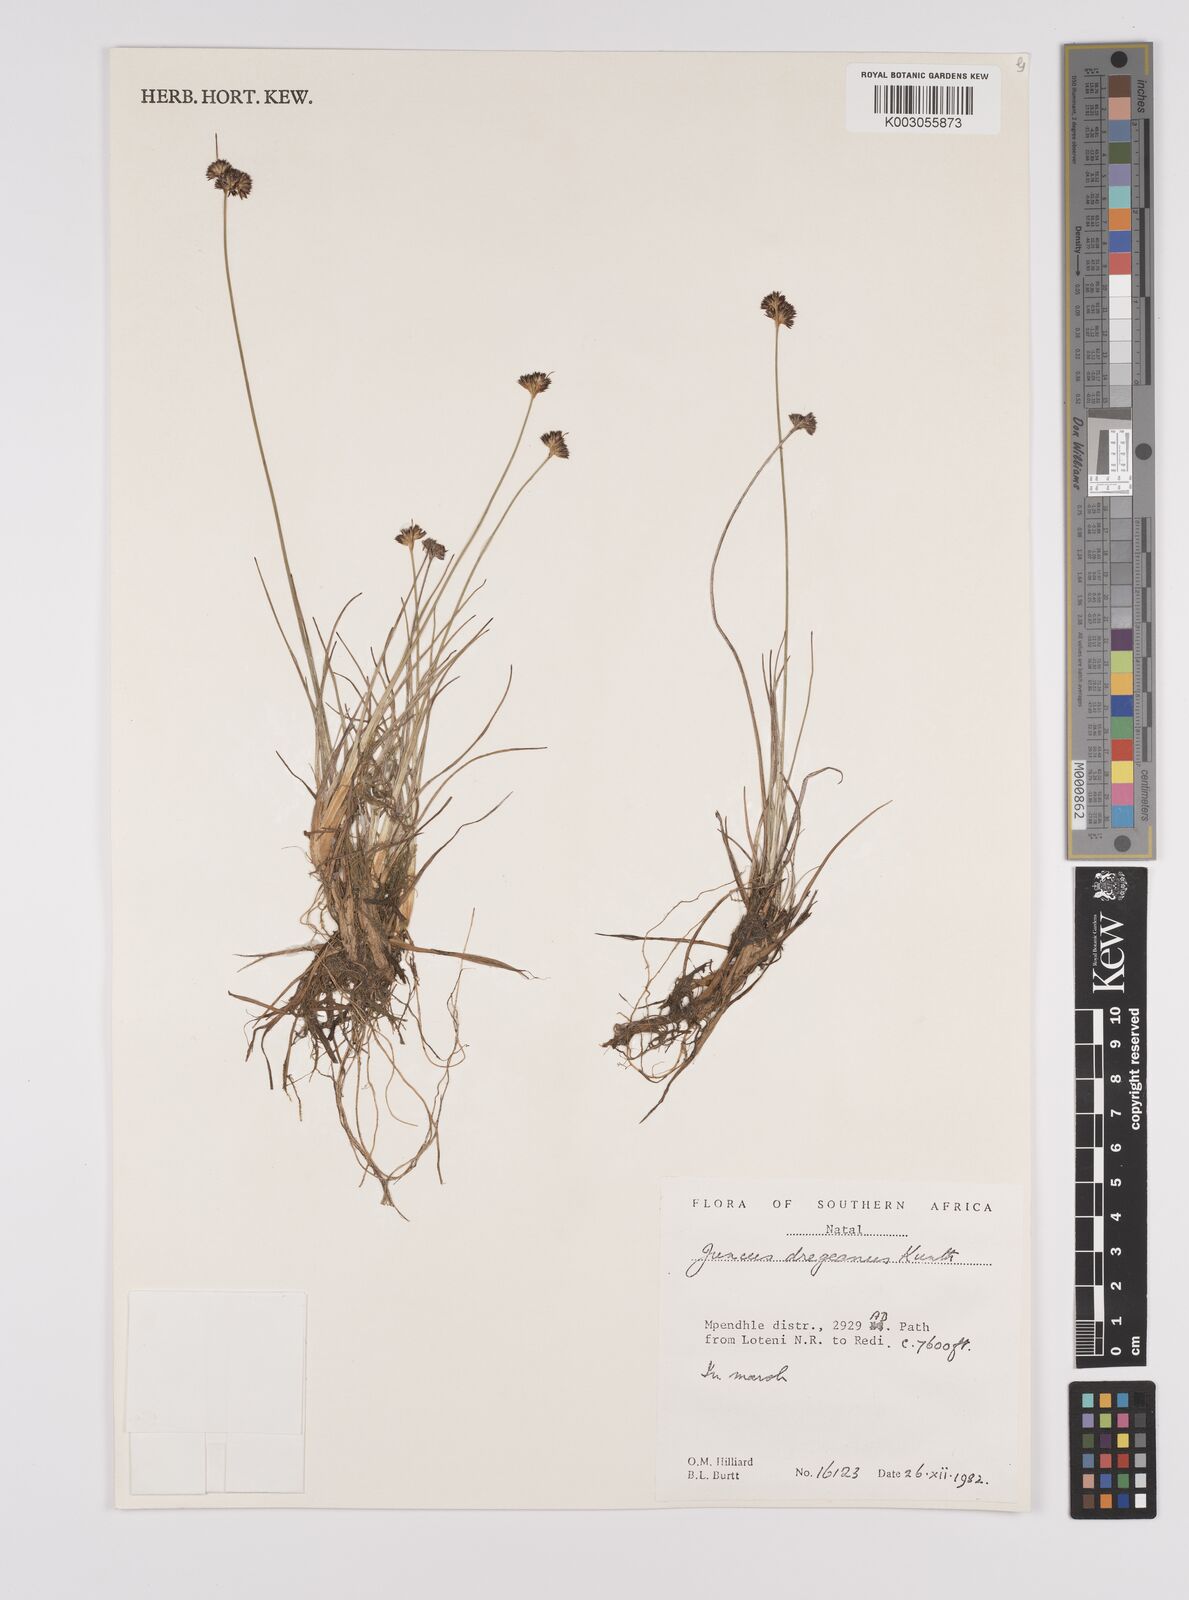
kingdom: Plantae
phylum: Tracheophyta
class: Liliopsida
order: Poales
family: Juncaceae
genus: Juncus
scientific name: Juncus dregeanus
